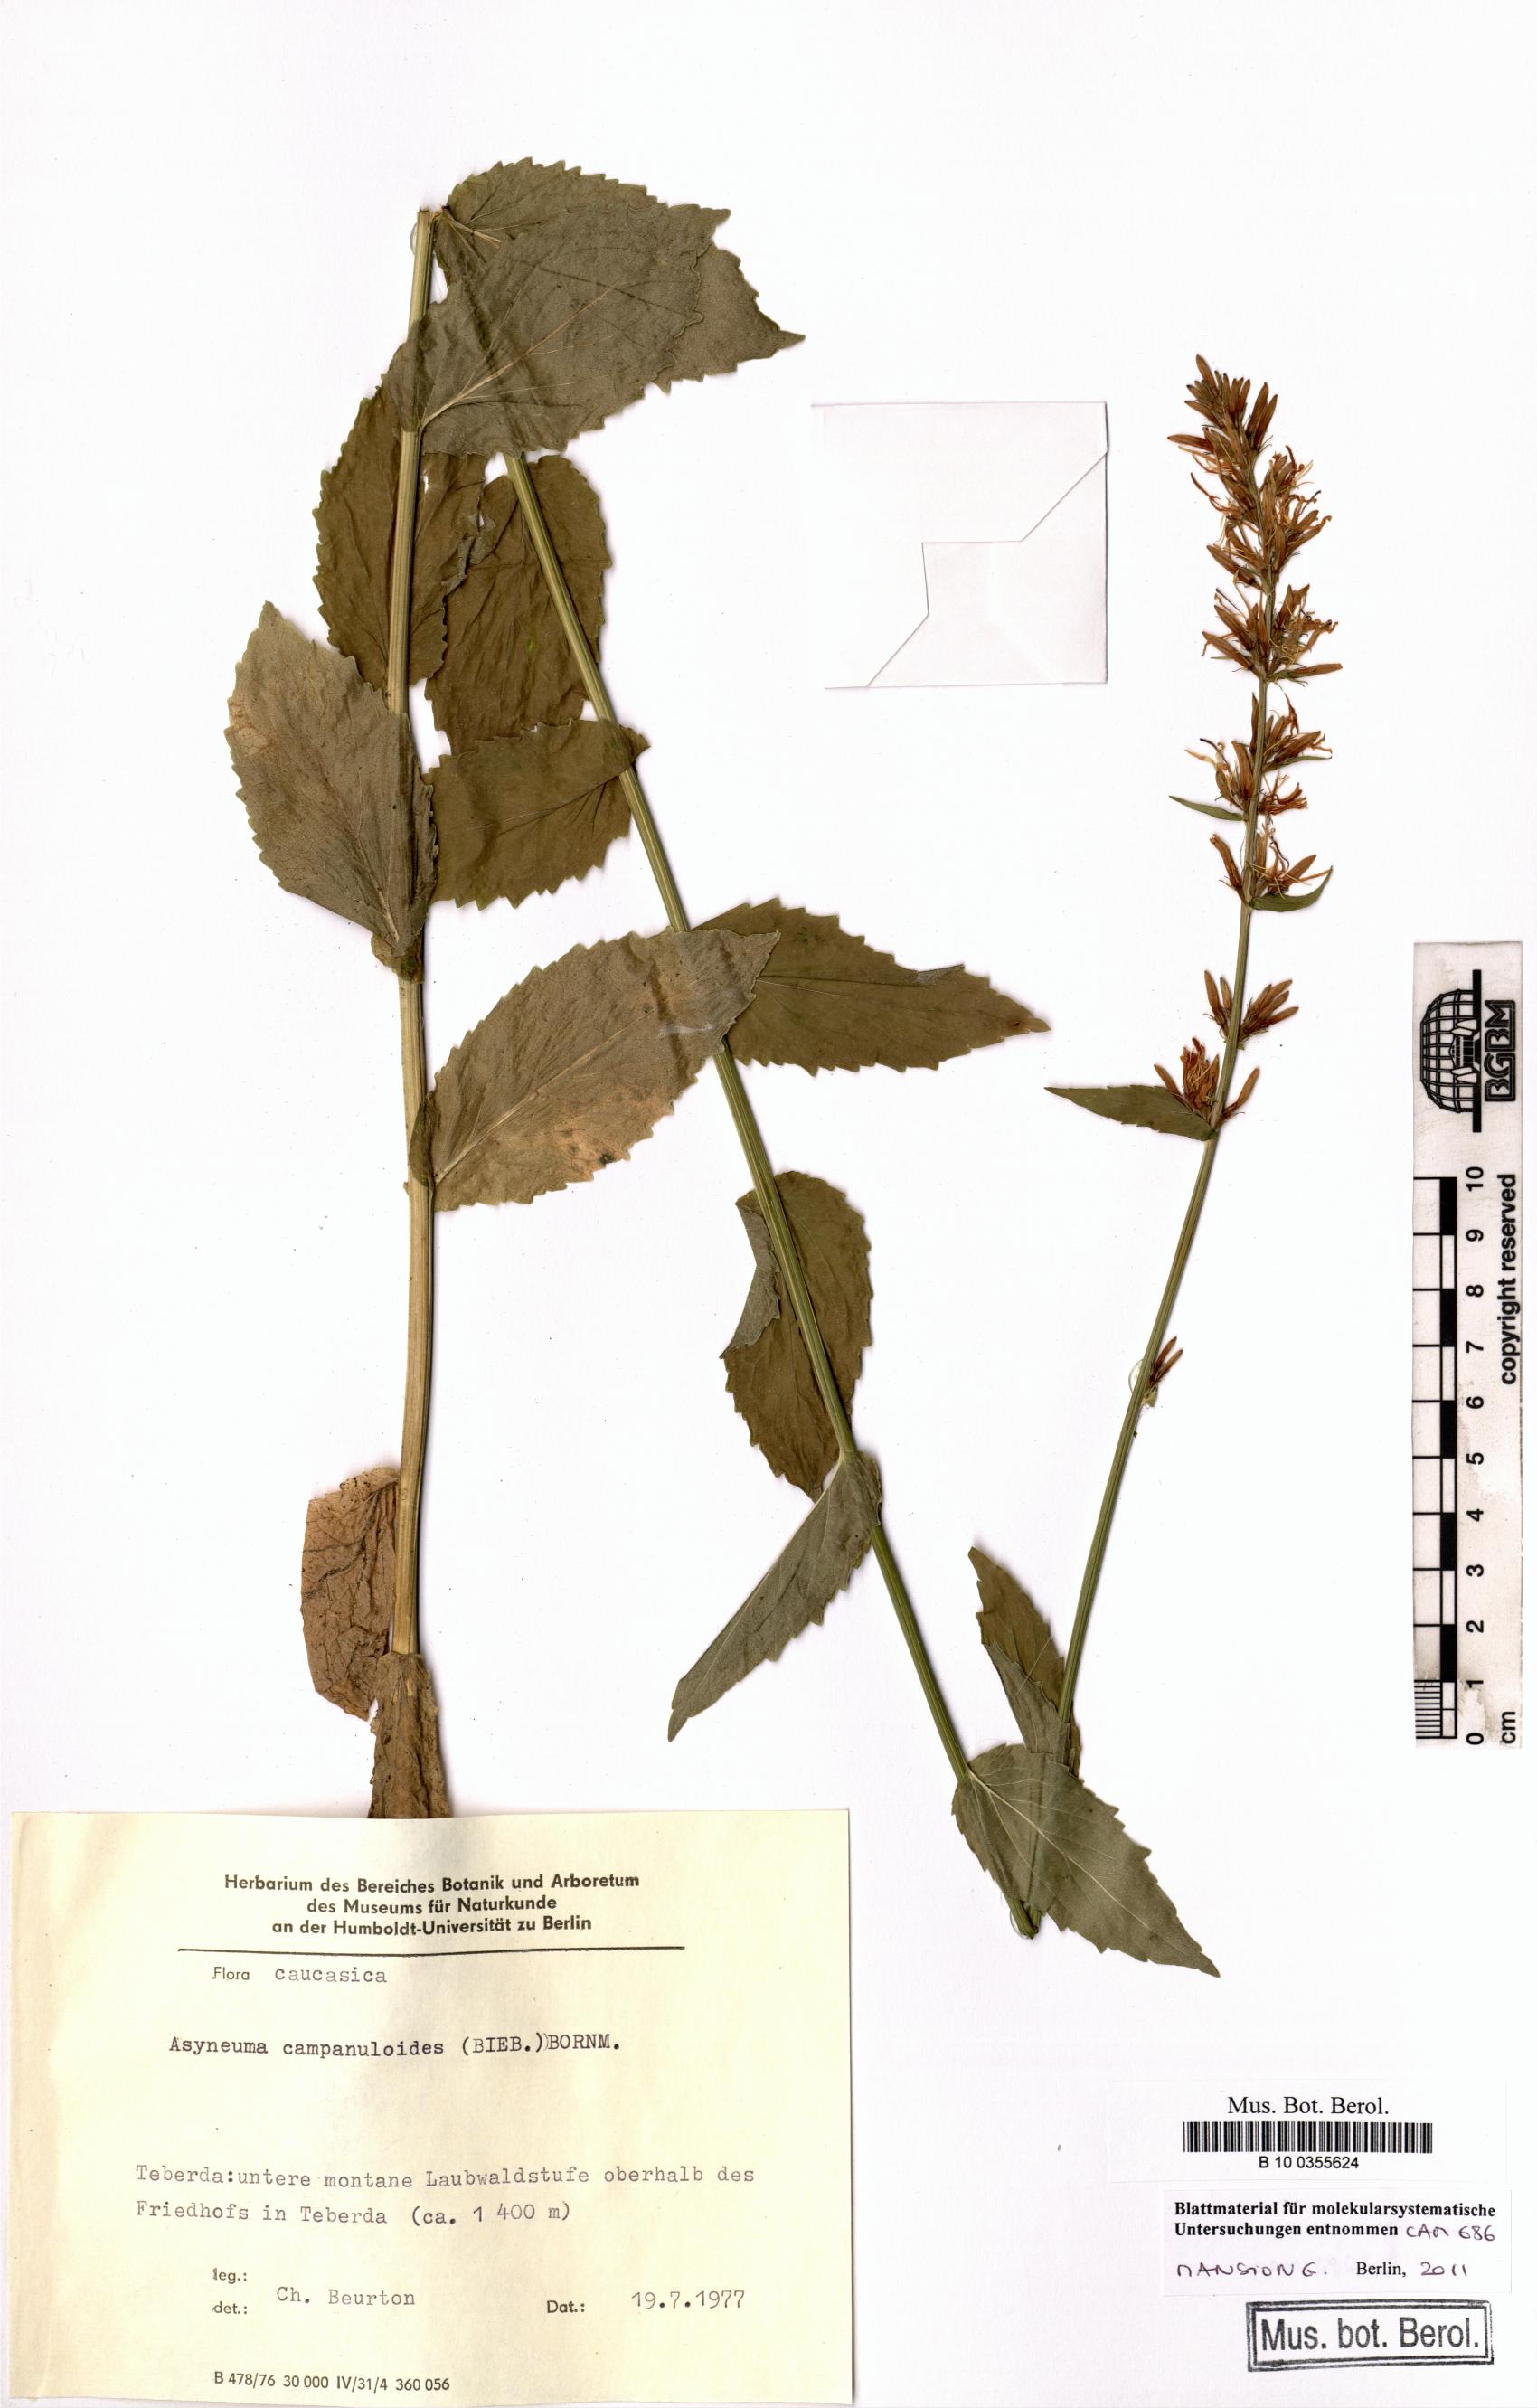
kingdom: Plantae
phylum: Tracheophyta
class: Magnoliopsida
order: Asterales
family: Campanulaceae
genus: Asyneuma
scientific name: Asyneuma campanuloides
